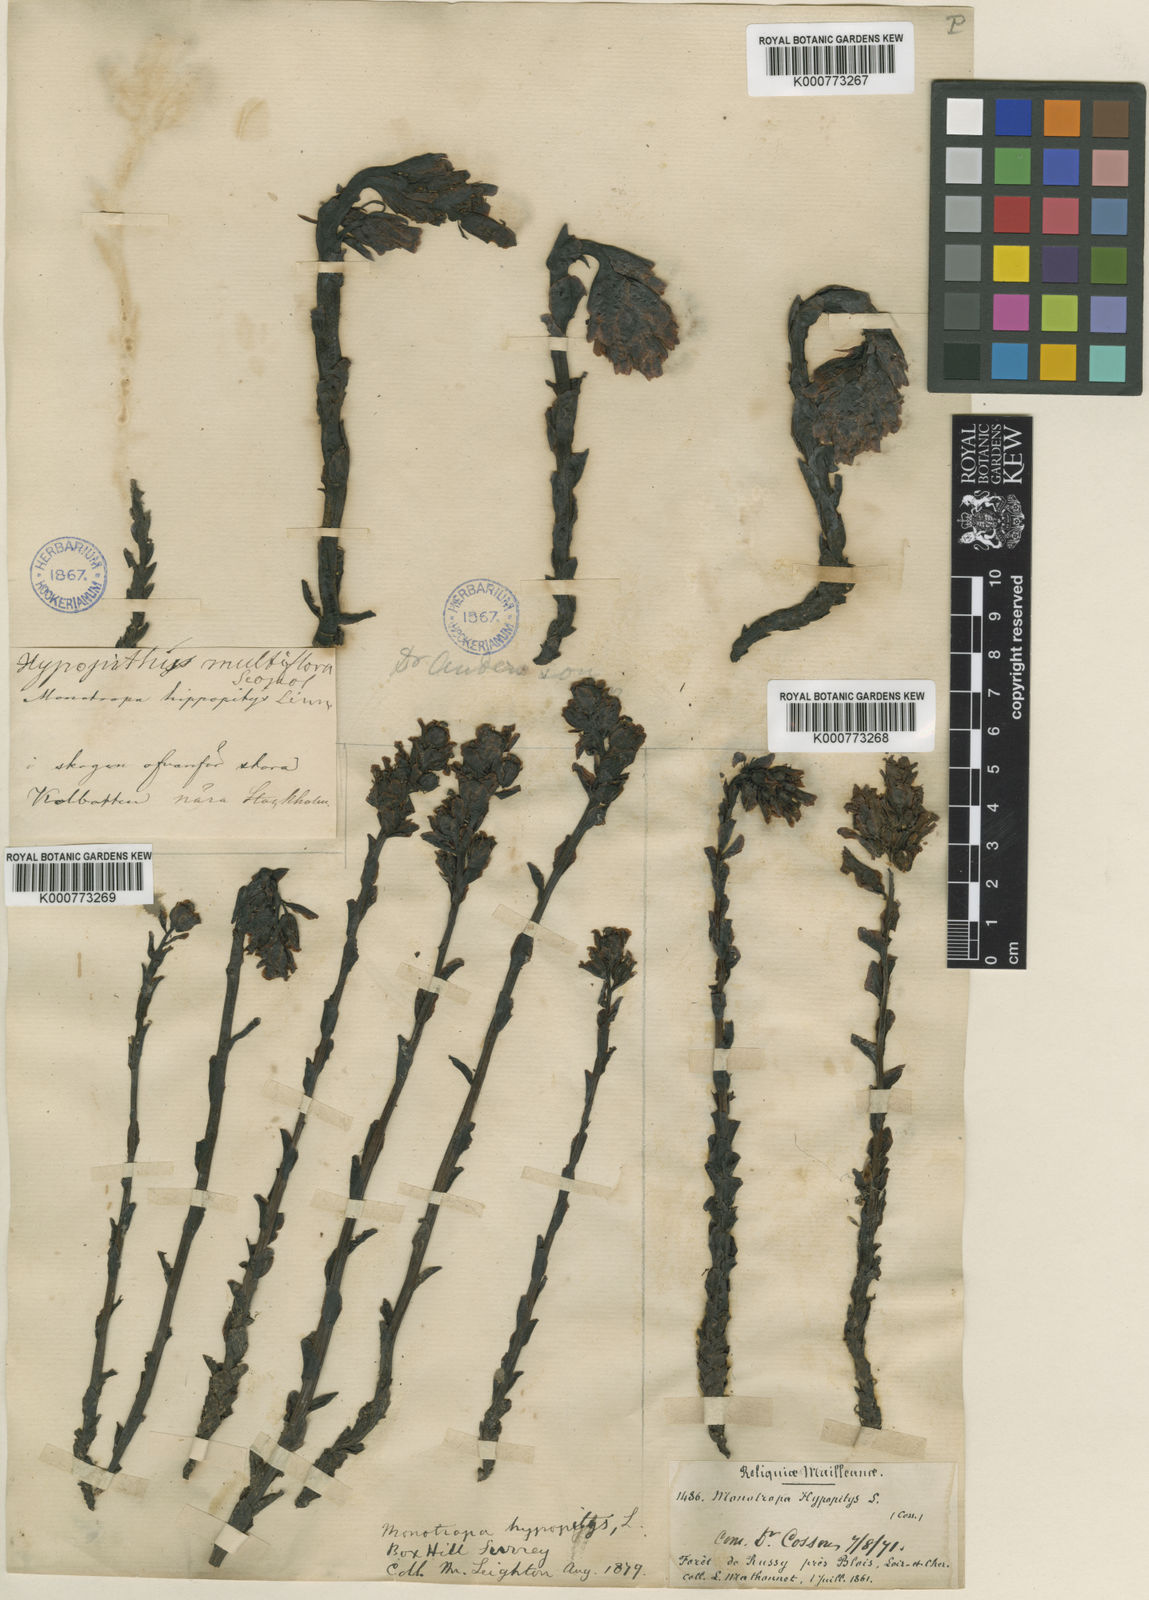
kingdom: Plantae
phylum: Tracheophyta
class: Magnoliopsida
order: Ericales
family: Ericaceae
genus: Monotropa
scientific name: Monotropa
